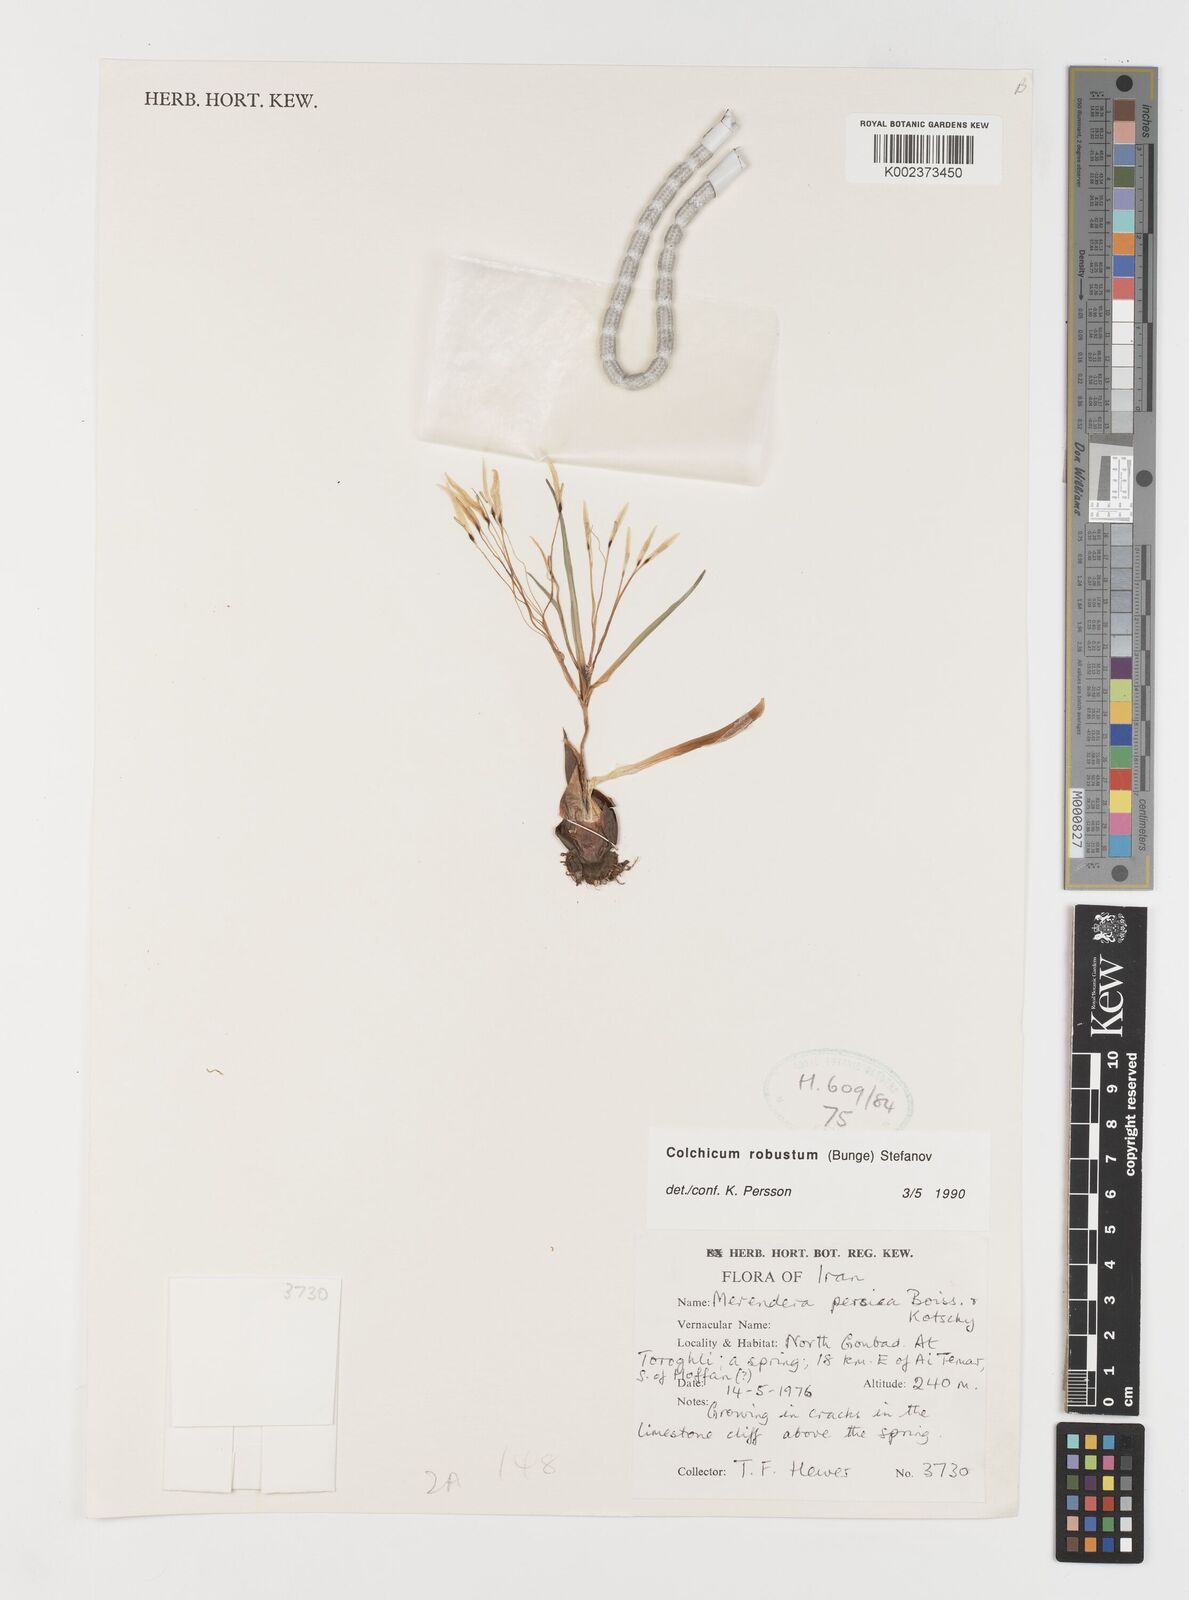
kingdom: Plantae
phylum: Tracheophyta
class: Liliopsida
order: Liliales
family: Colchicaceae
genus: Colchicum
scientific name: Colchicum robustum
